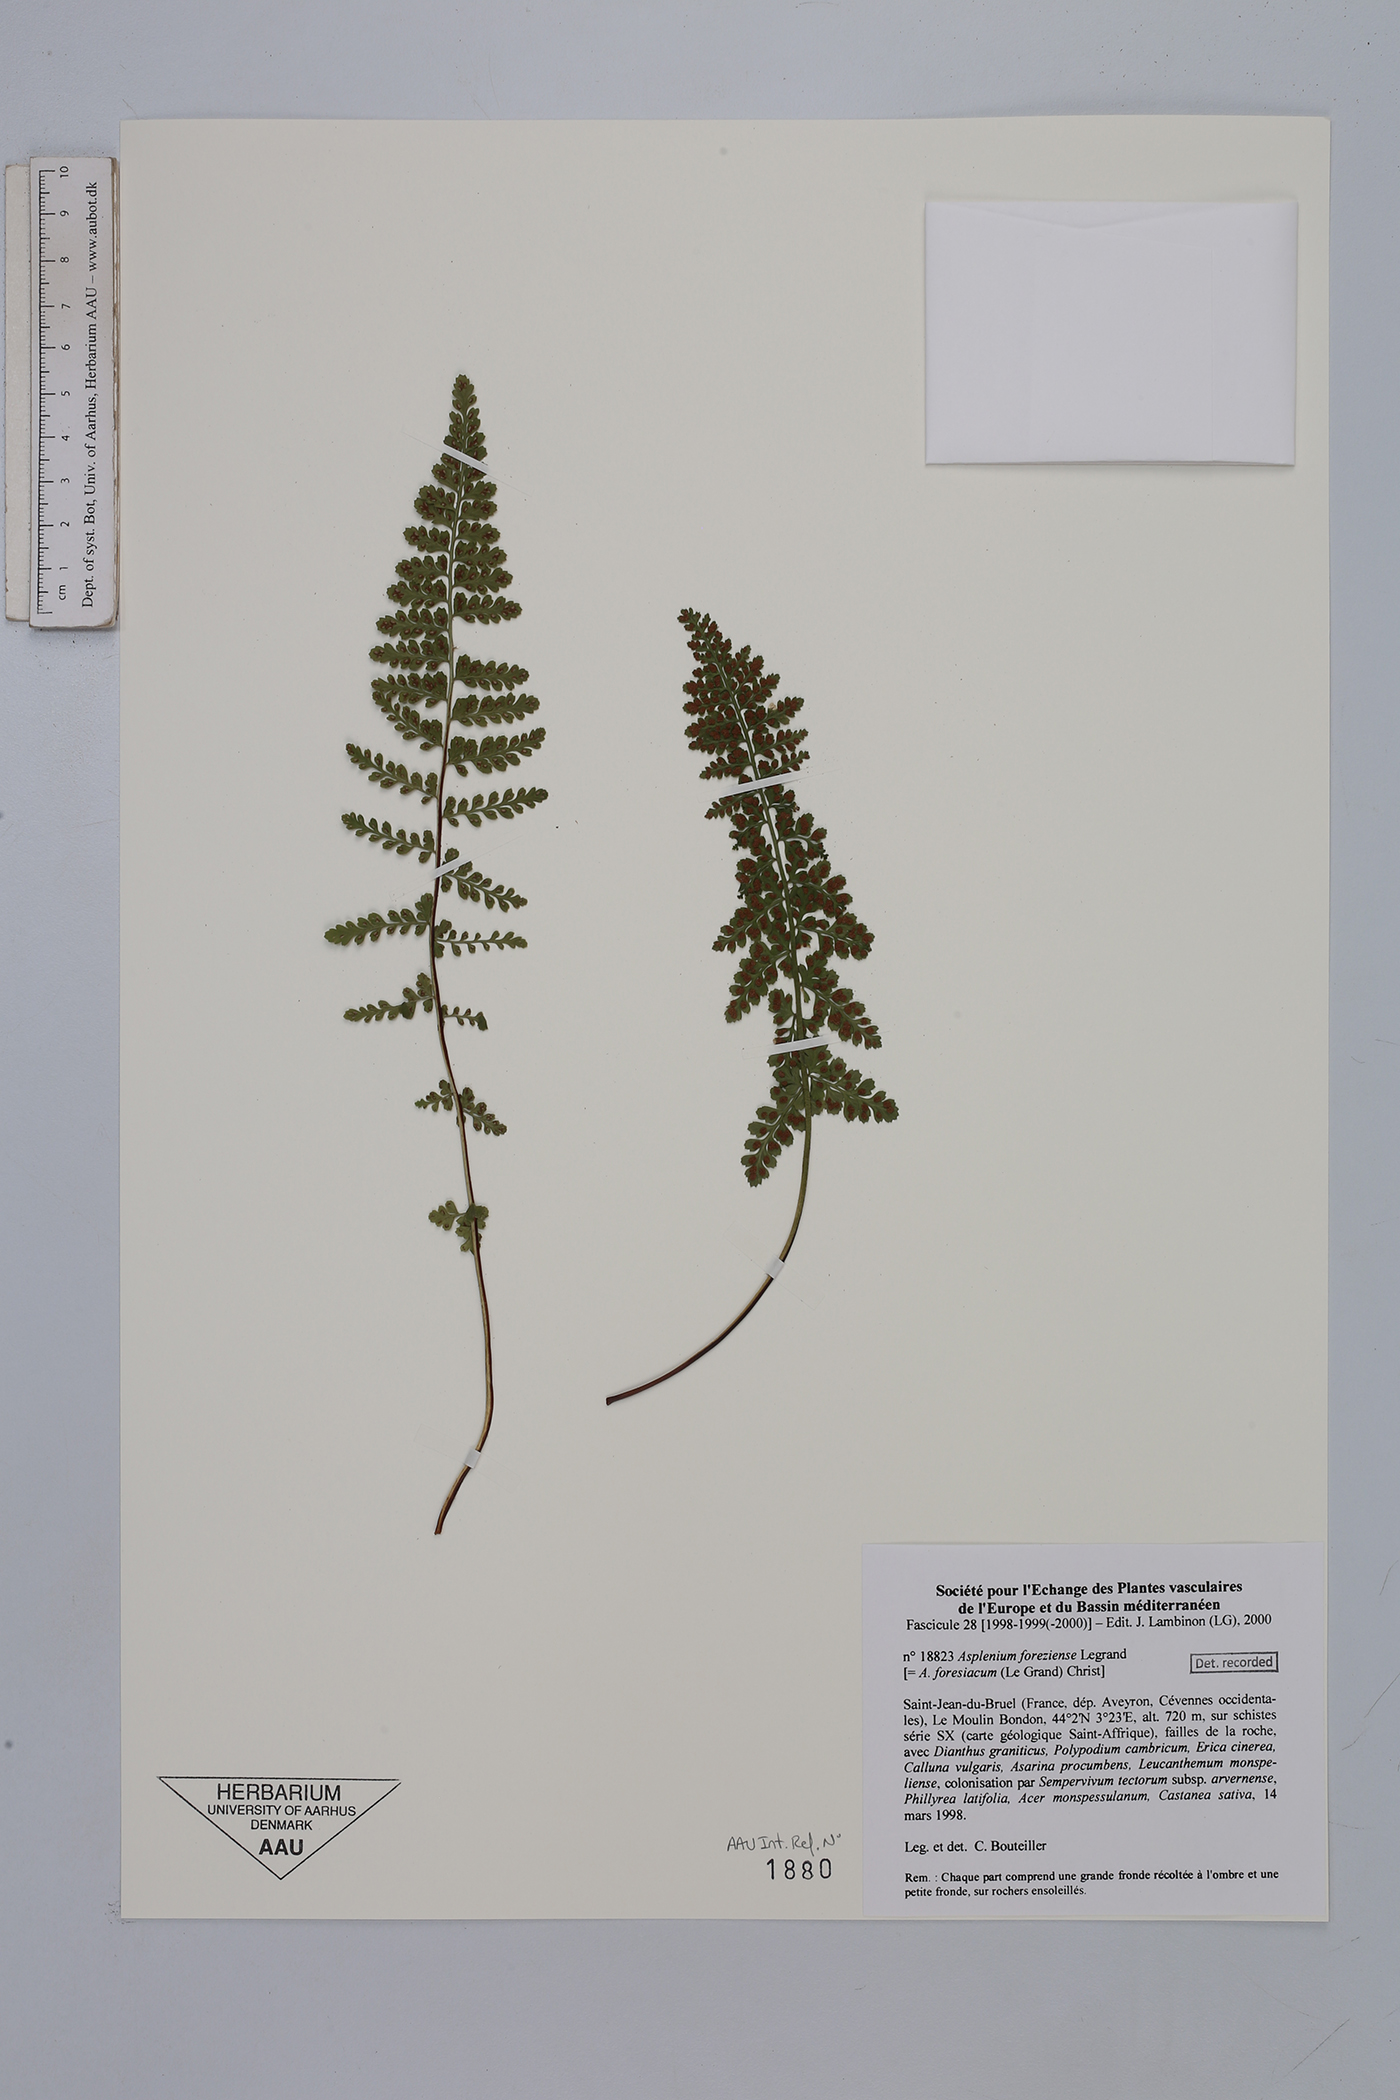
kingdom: Plantae
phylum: Tracheophyta
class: Polypodiopsida
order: Polypodiales
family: Aspleniaceae
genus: Asplenium
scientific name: Asplenium foreziense
